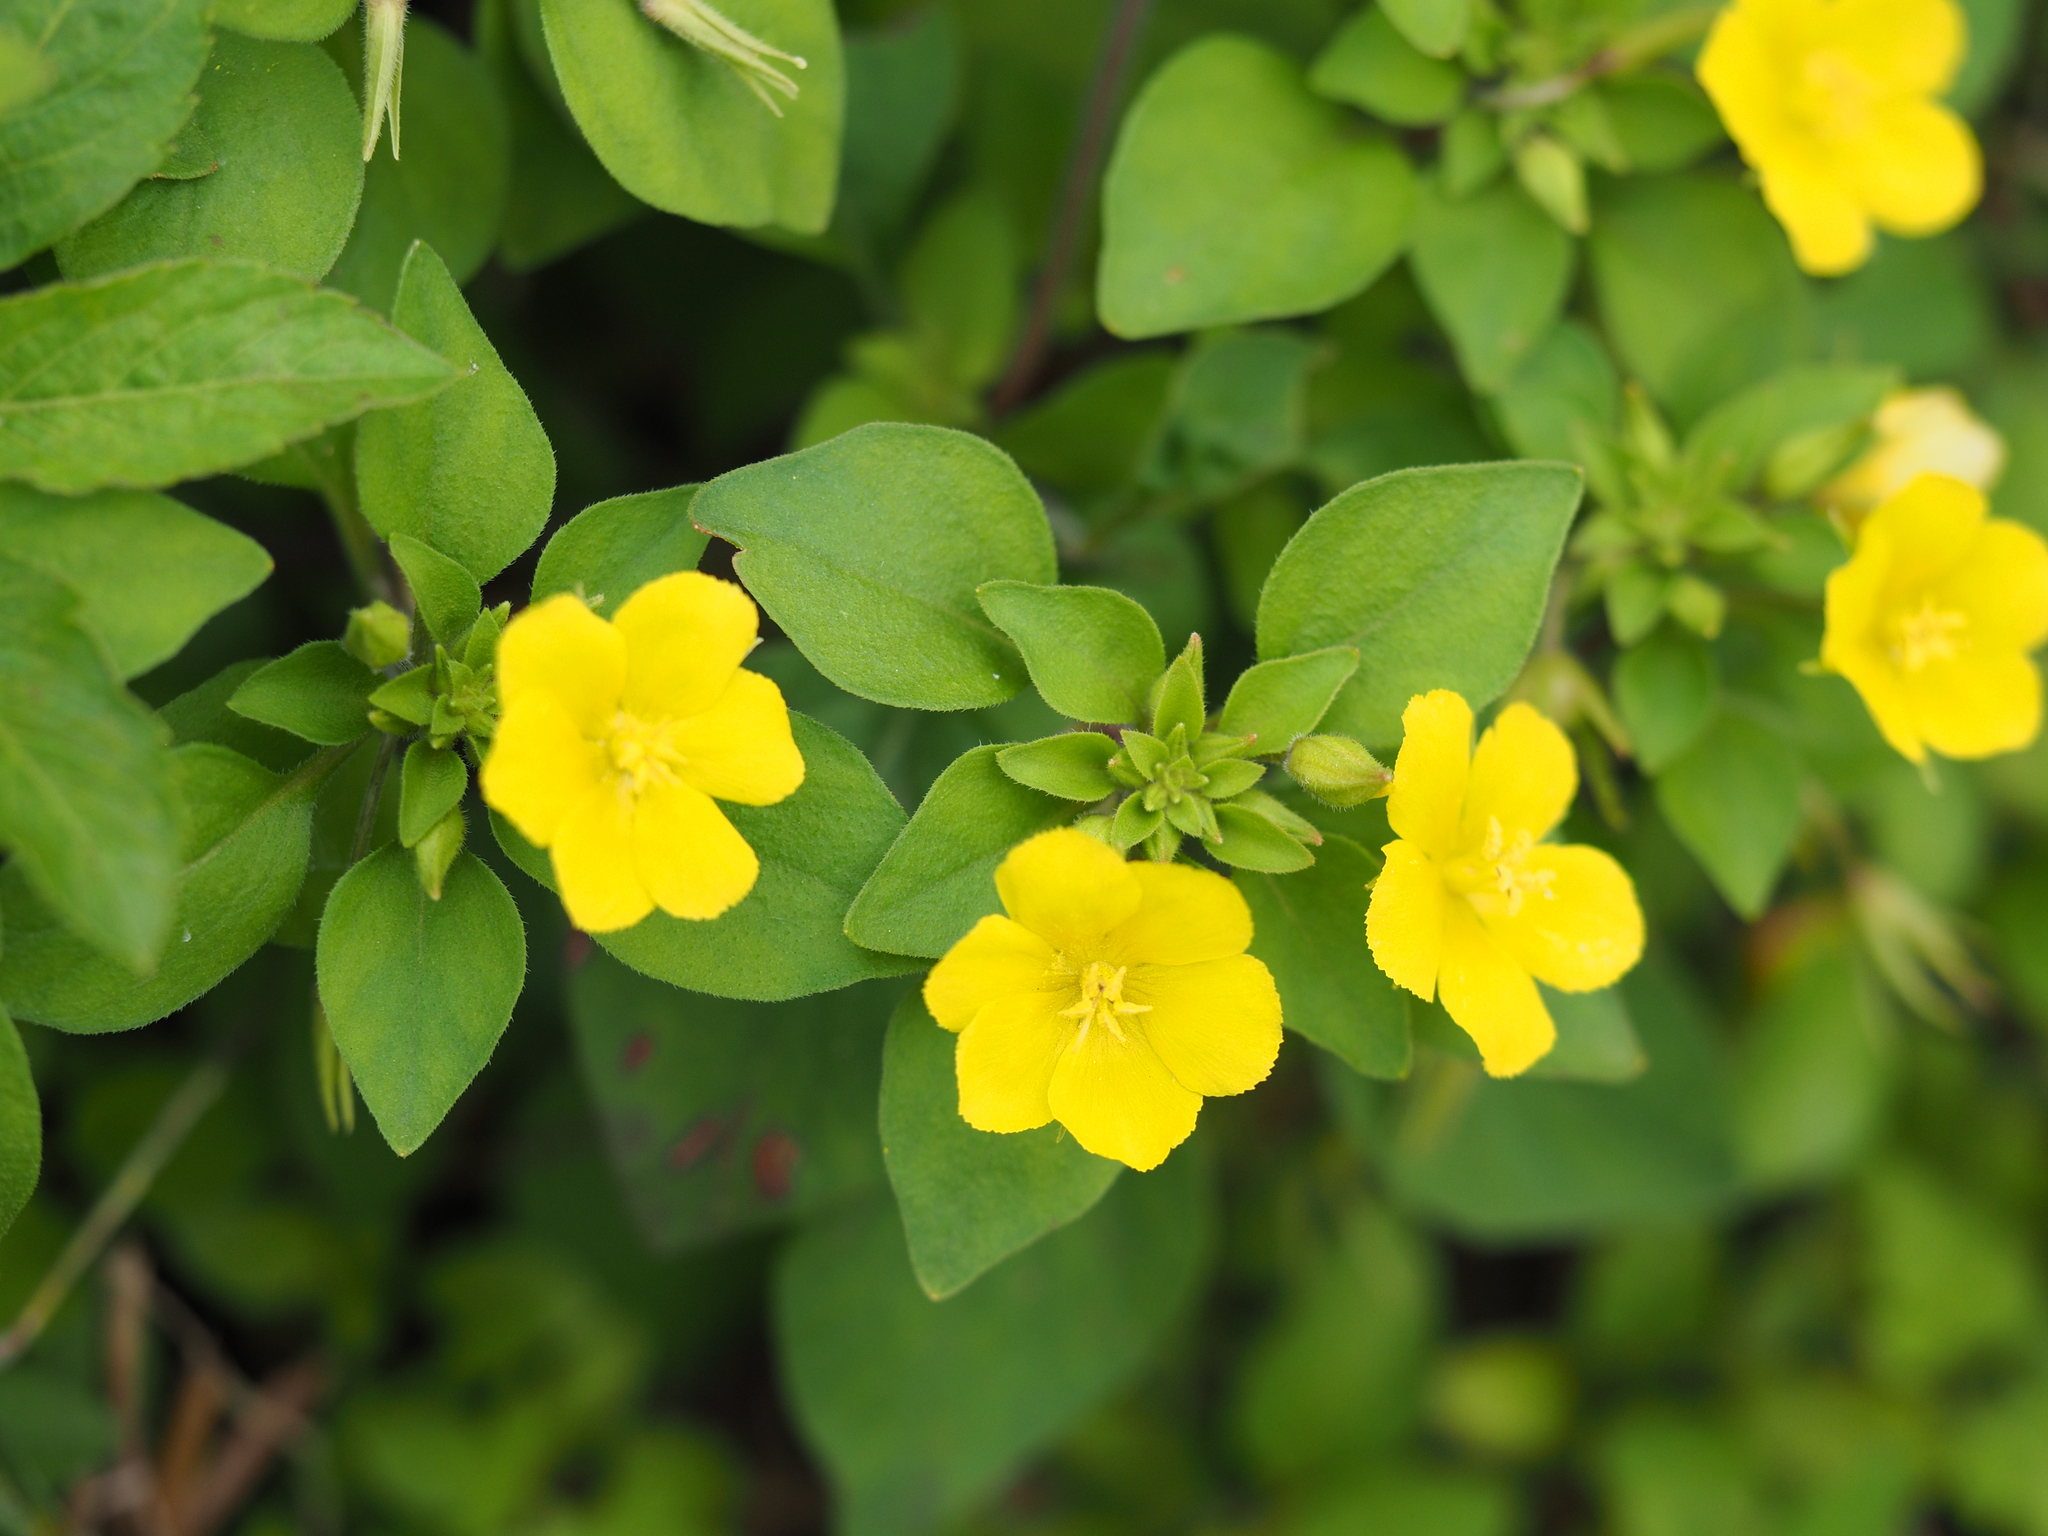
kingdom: Plantae
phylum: Tracheophyta
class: Magnoliopsida
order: Ericales
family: Primulaceae
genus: Lysimachia
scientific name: Lysimachia remota
